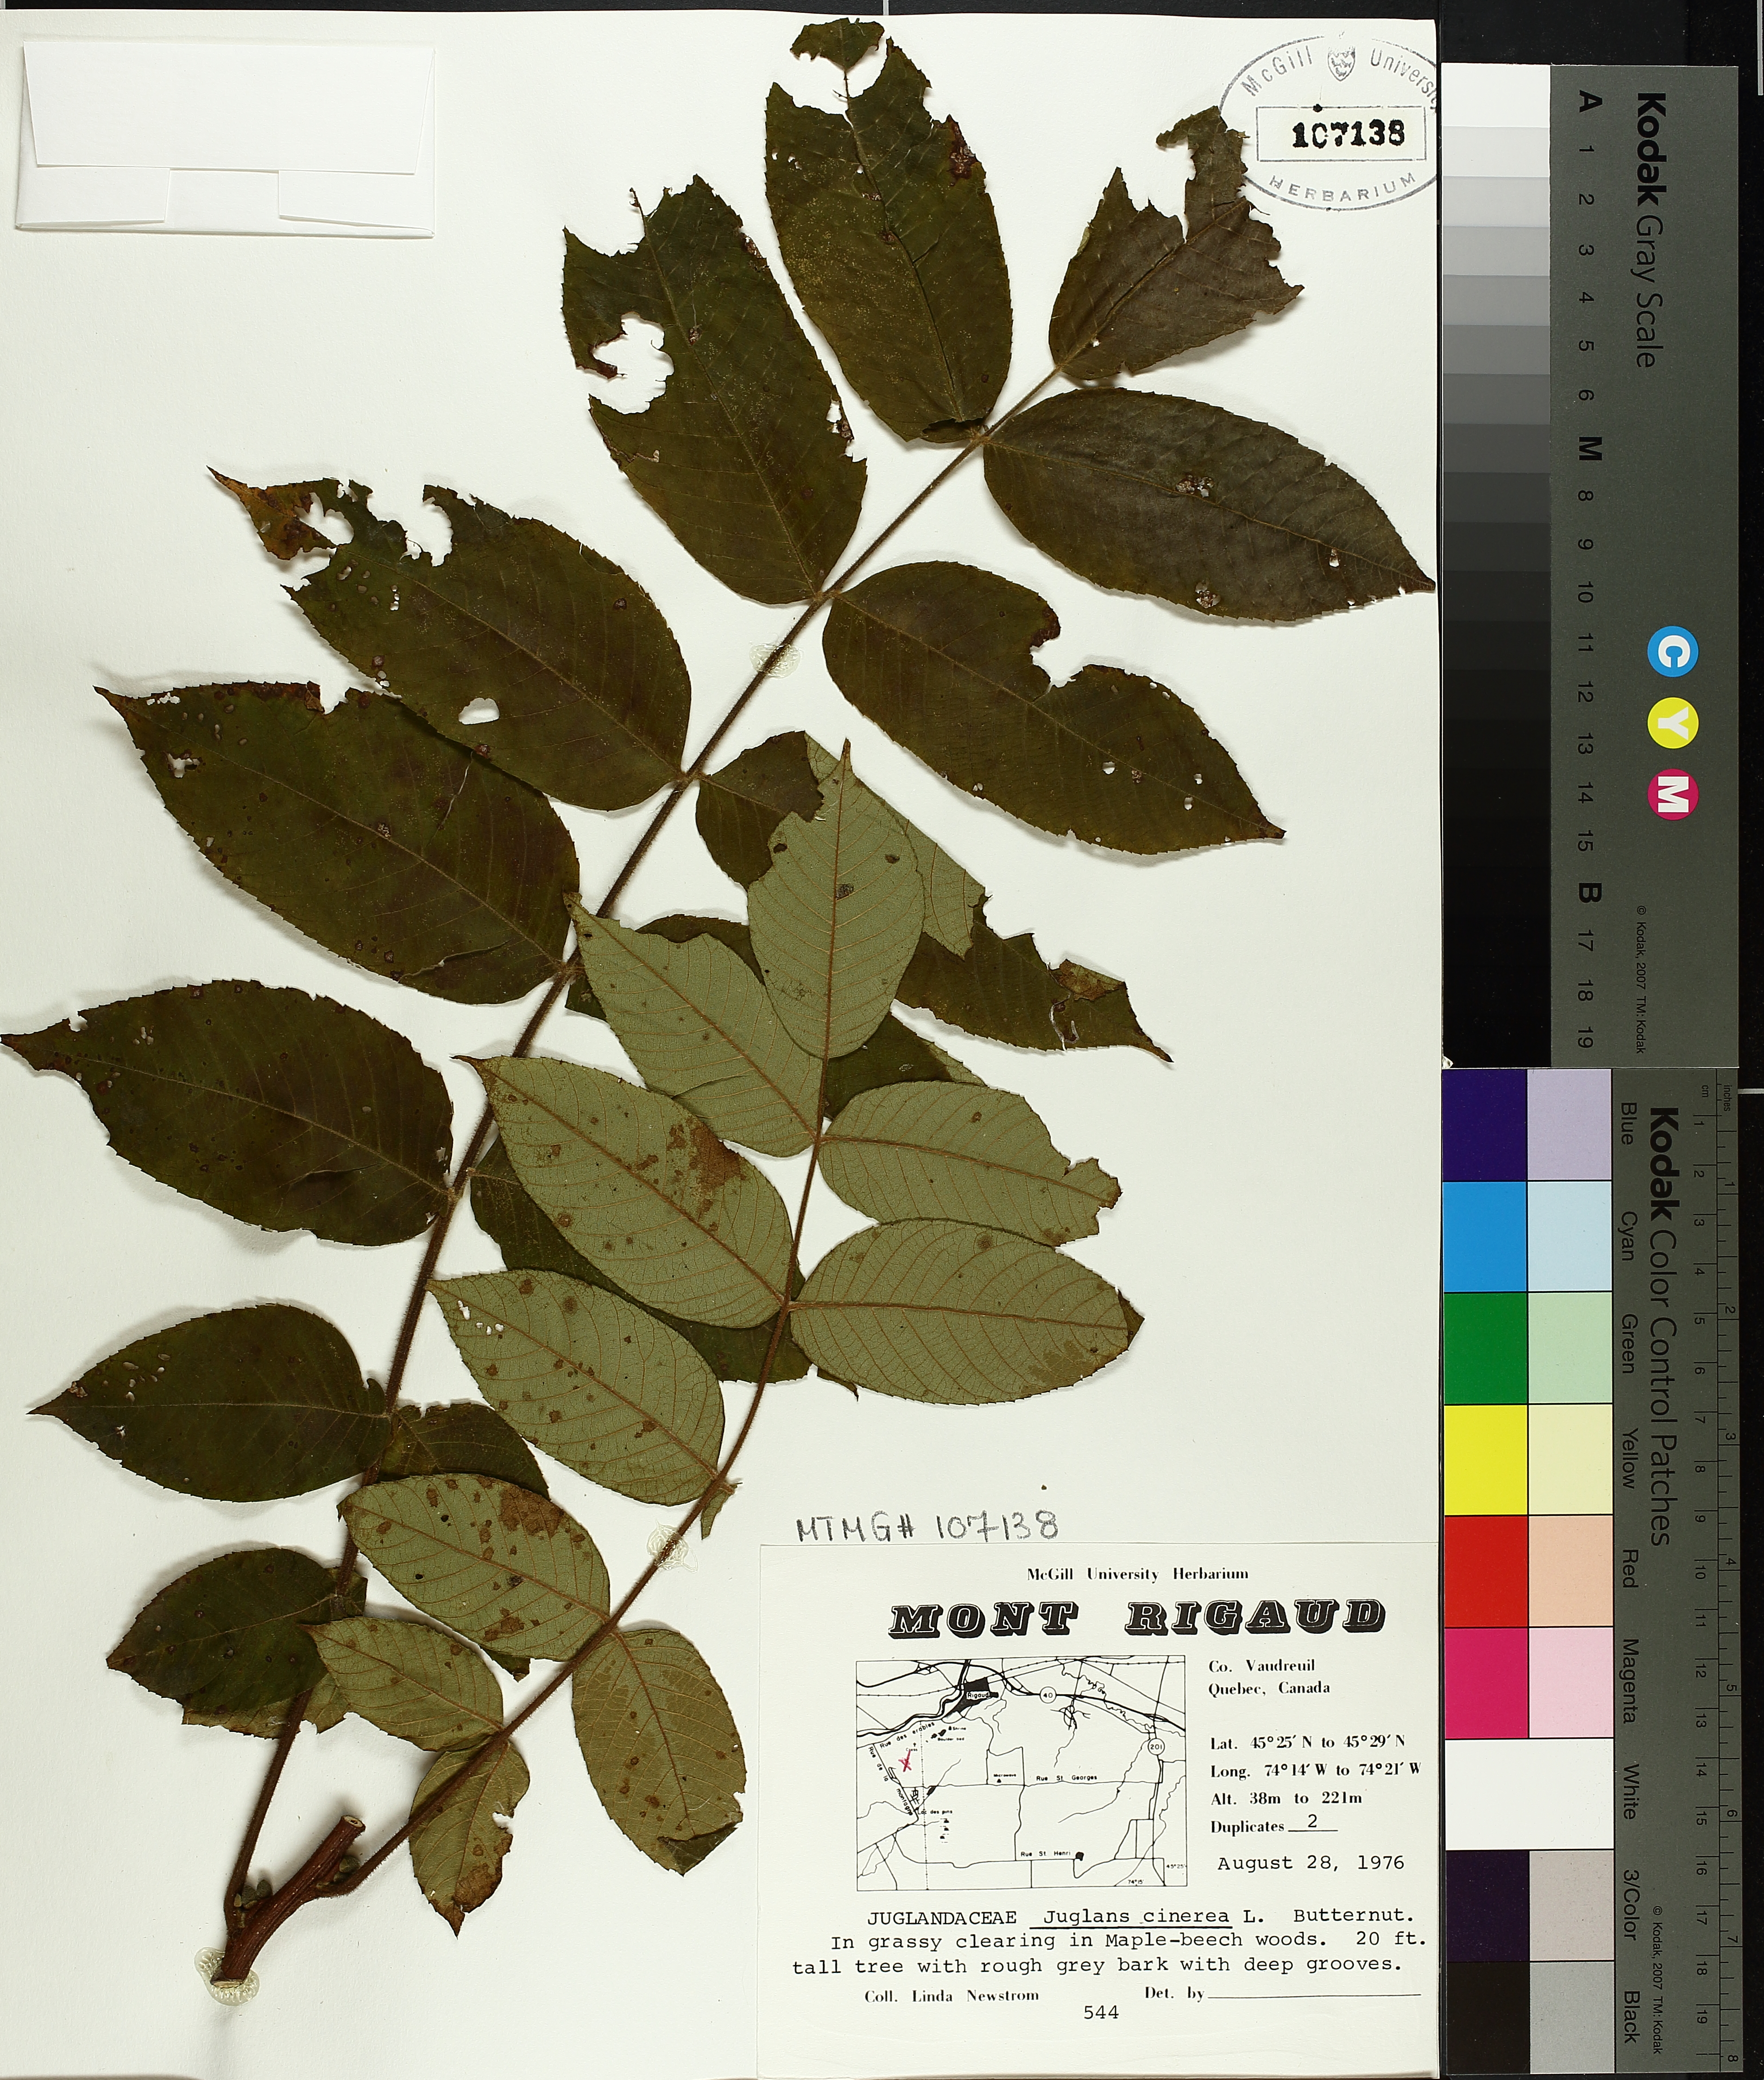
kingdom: Plantae
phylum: Tracheophyta
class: Magnoliopsida
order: Fagales
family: Juglandaceae
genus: Juglans
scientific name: Juglans cinerea
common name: Butternut
